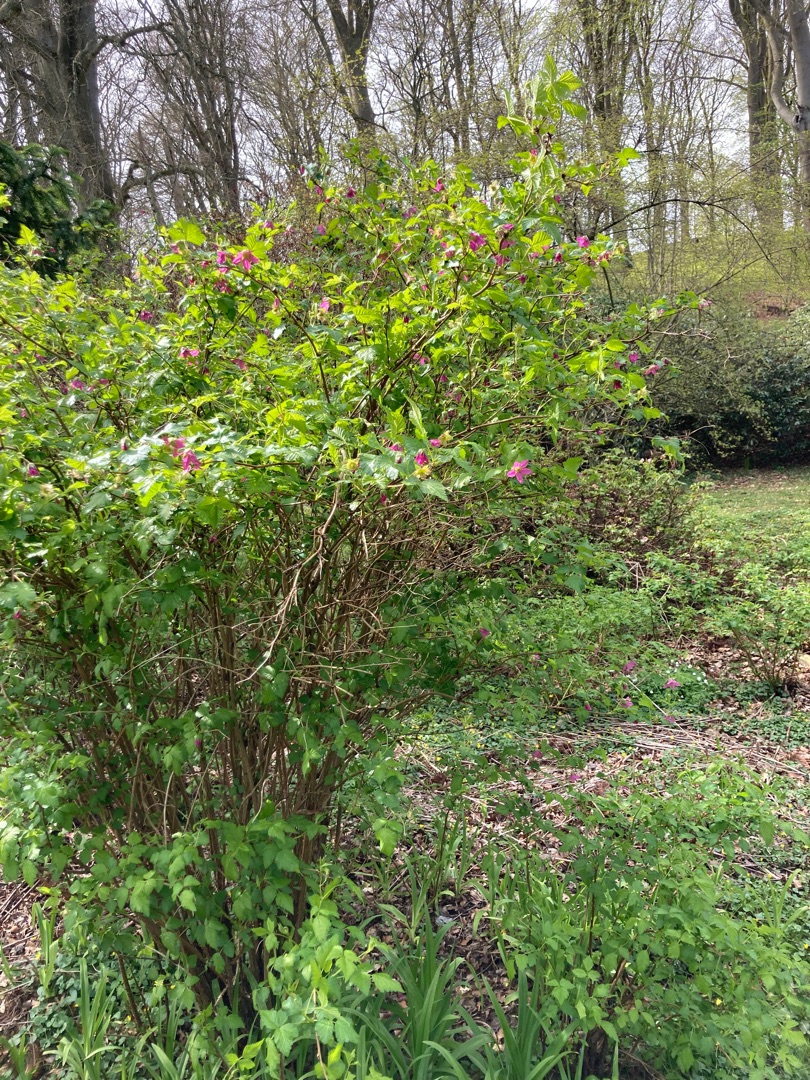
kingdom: Plantae
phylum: Tracheophyta
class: Magnoliopsida
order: Rosales
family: Rosaceae
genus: Rubus
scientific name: Rubus spectabilis
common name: Laksebær
